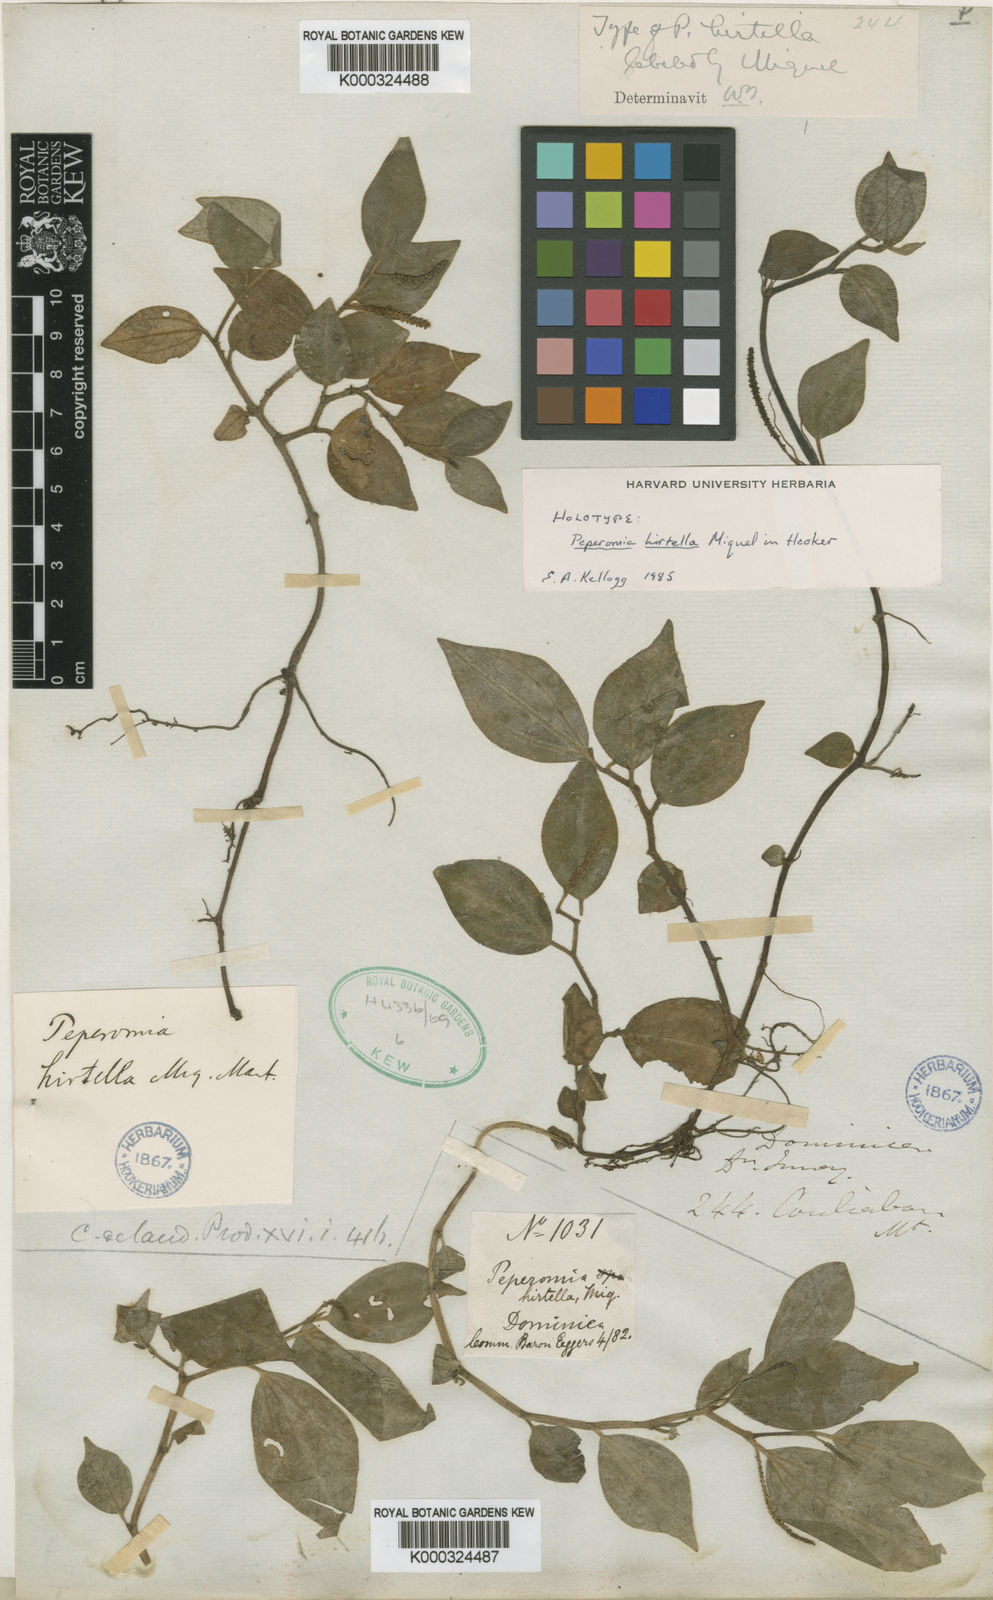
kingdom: Plantae
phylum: Tracheophyta
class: Magnoliopsida
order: Piperales
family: Piperaceae
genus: Peperomia
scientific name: Peperomia hirtella
